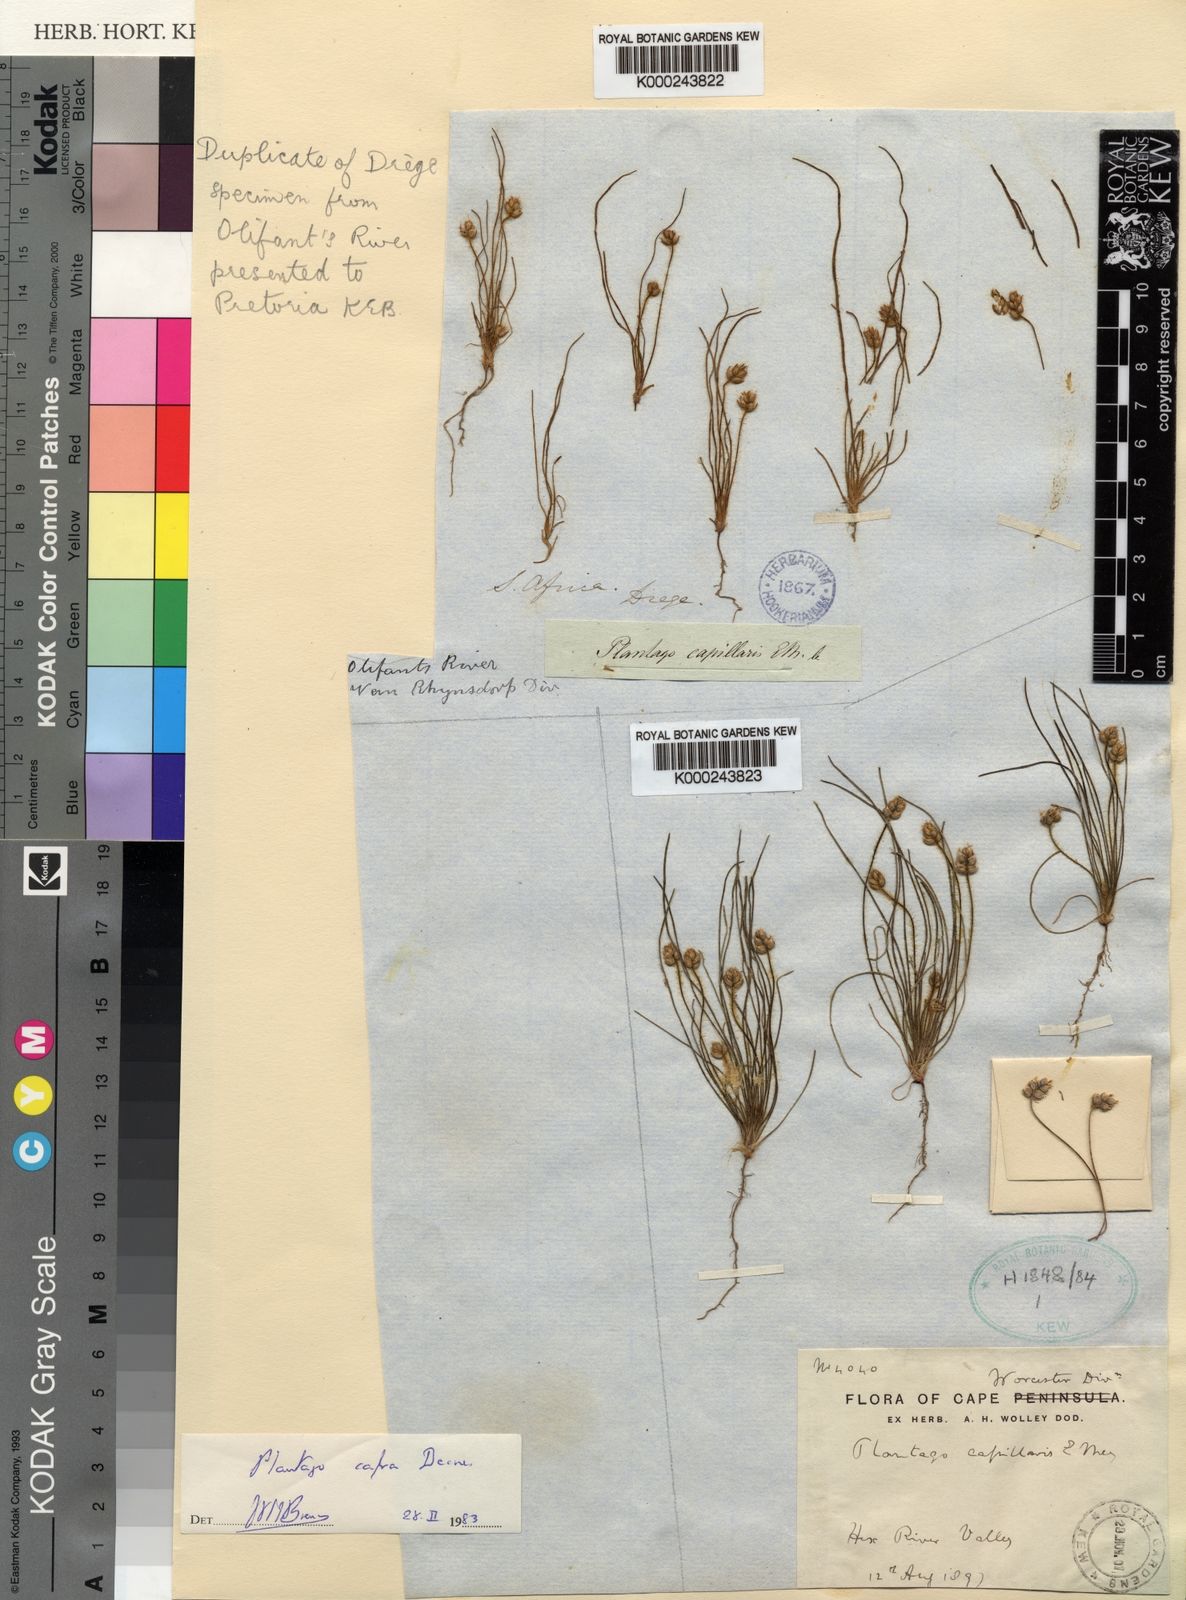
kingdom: Plantae
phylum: Tracheophyta
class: Magnoliopsida
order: Lamiales
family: Plantaginaceae
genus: Plantago
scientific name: Plantago cafra
